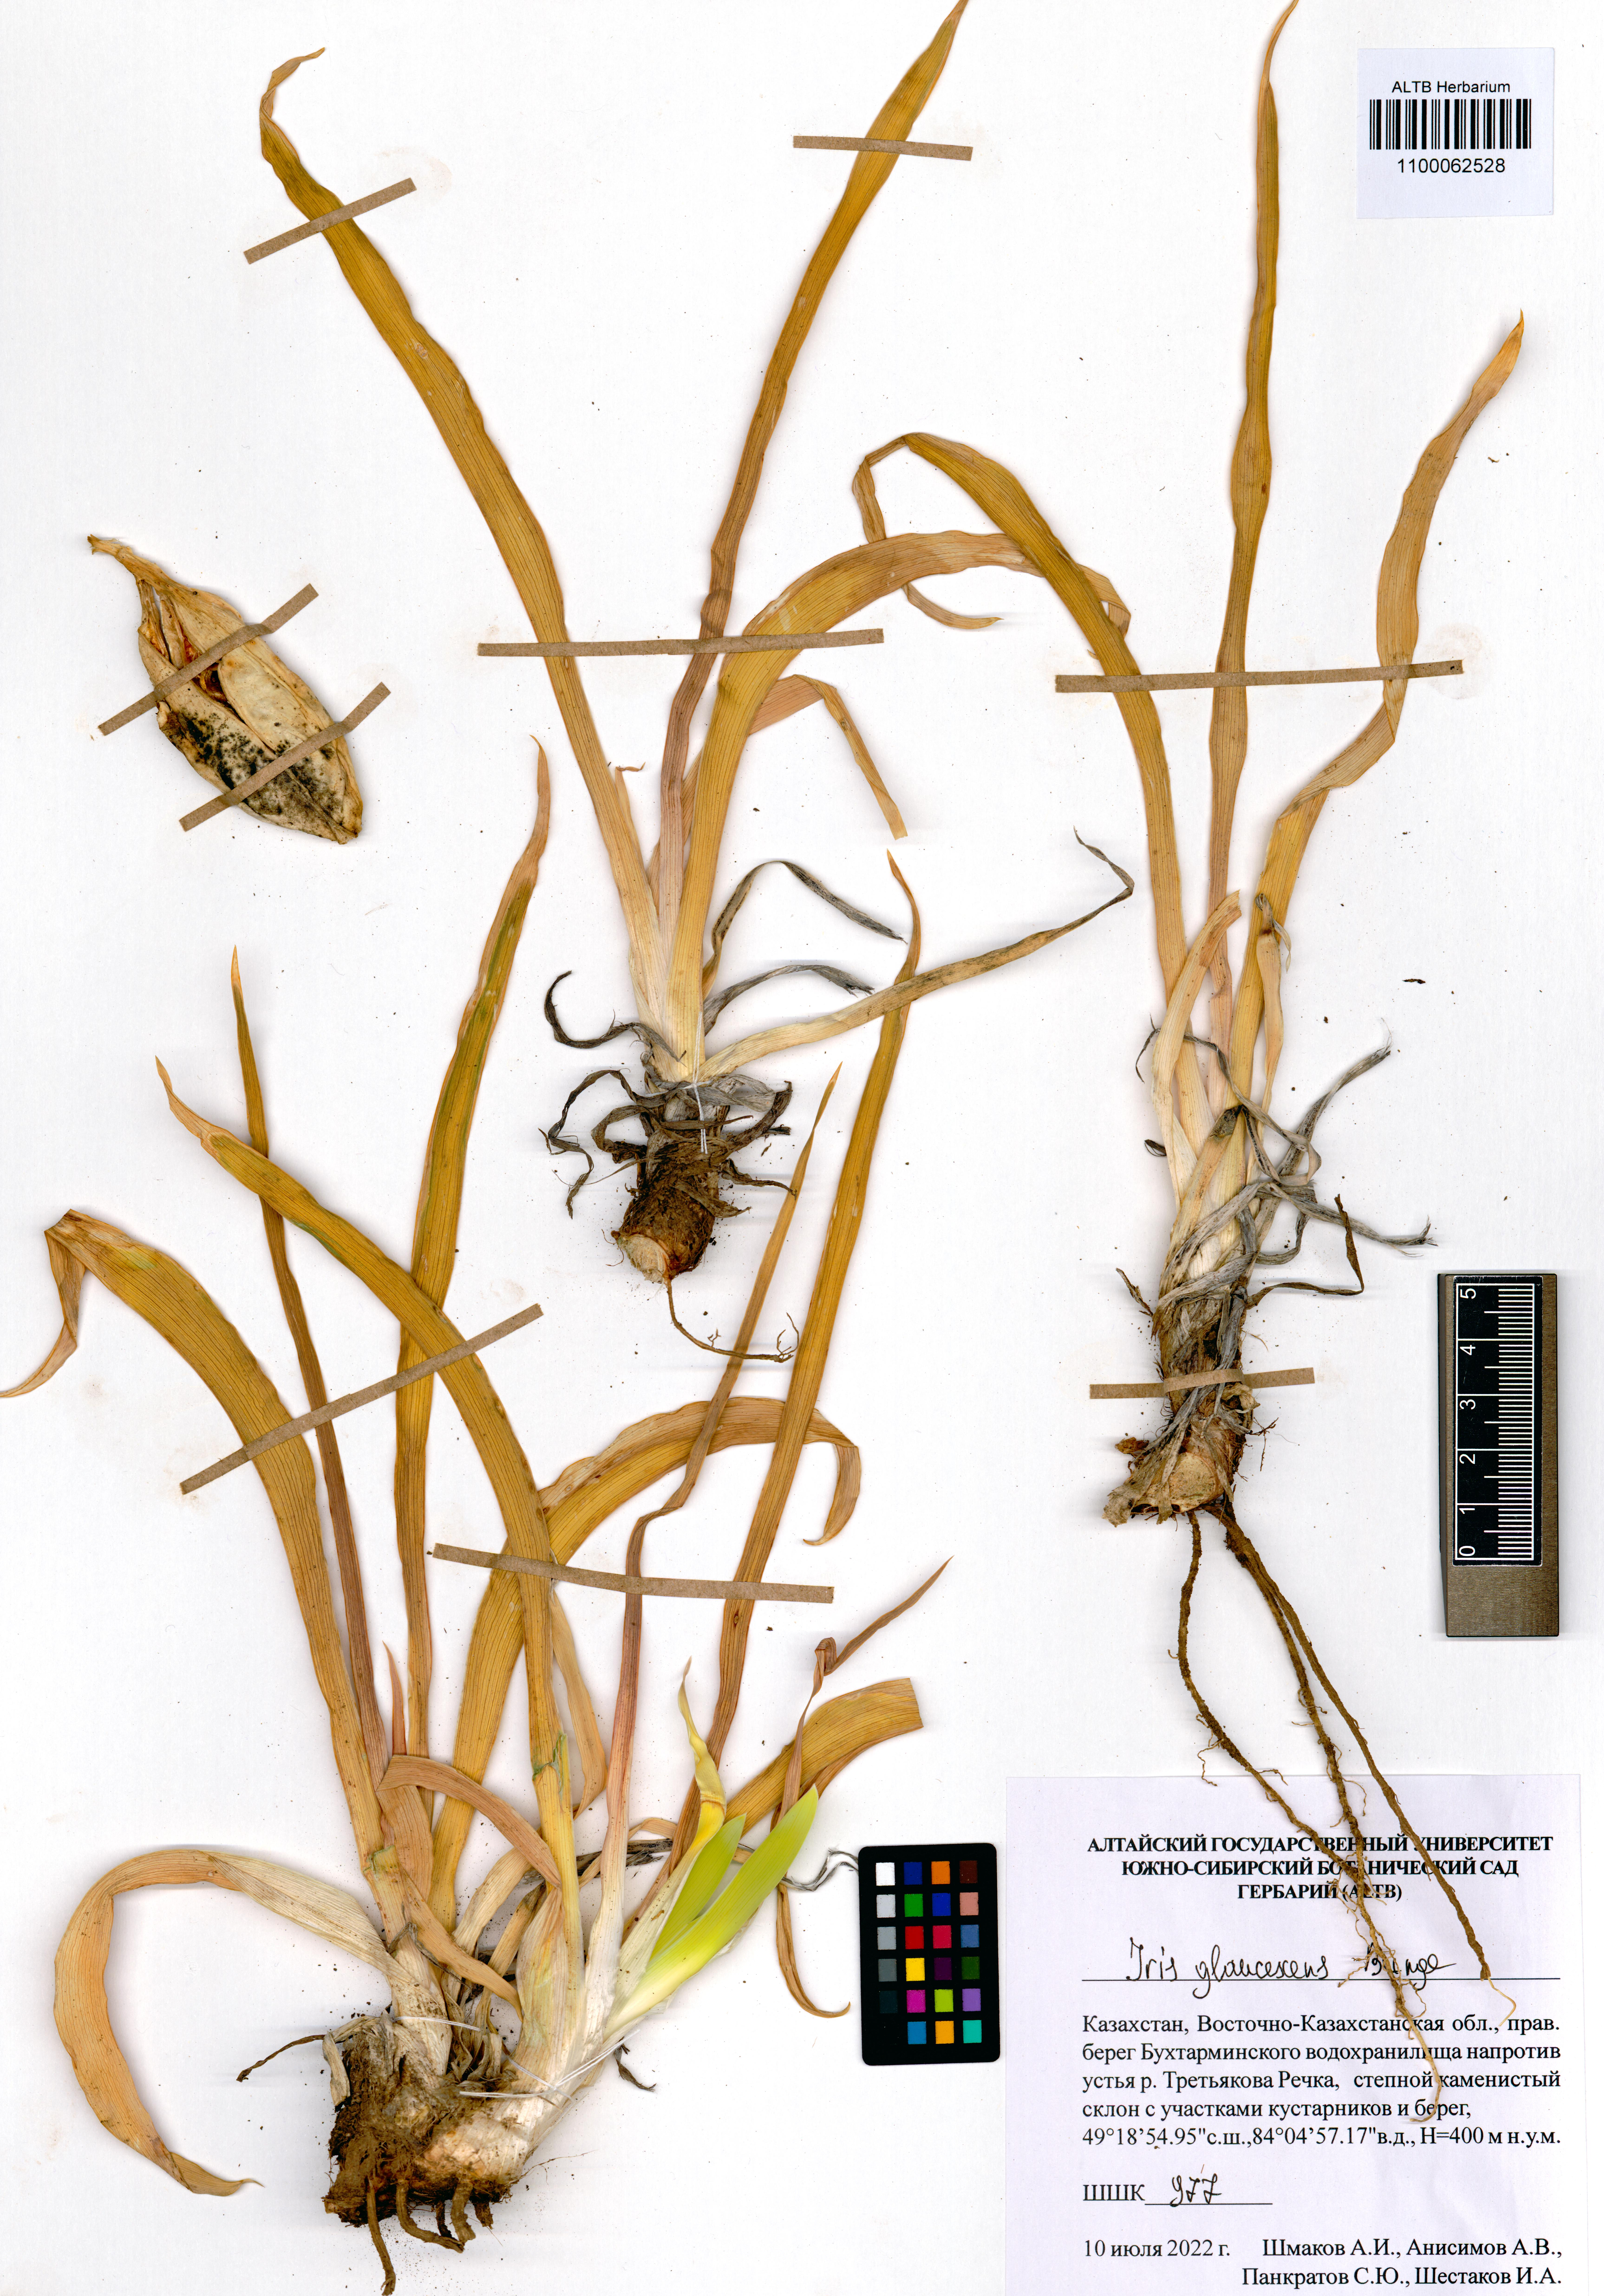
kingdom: Plantae
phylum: Tracheophyta
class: Liliopsida
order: Asparagales
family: Iridaceae
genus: Iris
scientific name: Iris glaucescens
